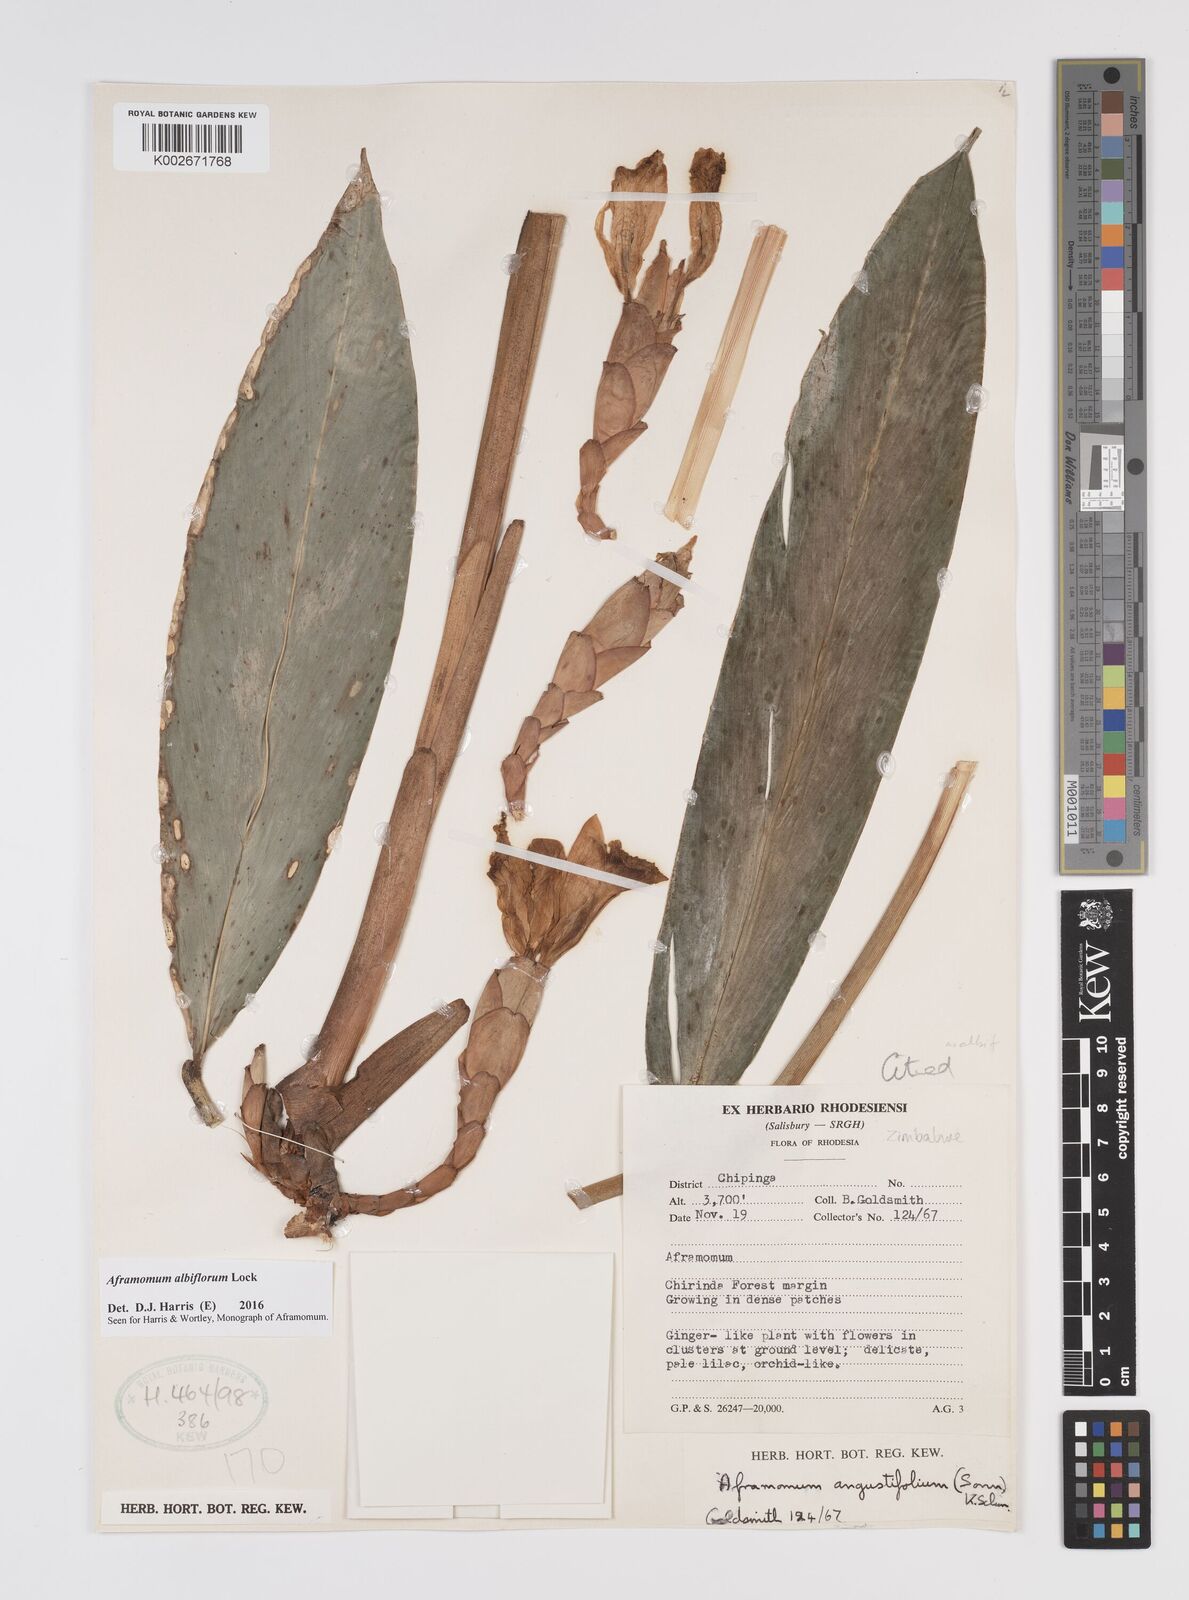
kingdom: Plantae
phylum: Tracheophyta
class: Liliopsida
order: Zingiberales
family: Zingiberaceae
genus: Aframomum
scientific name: Aframomum albiflorum
